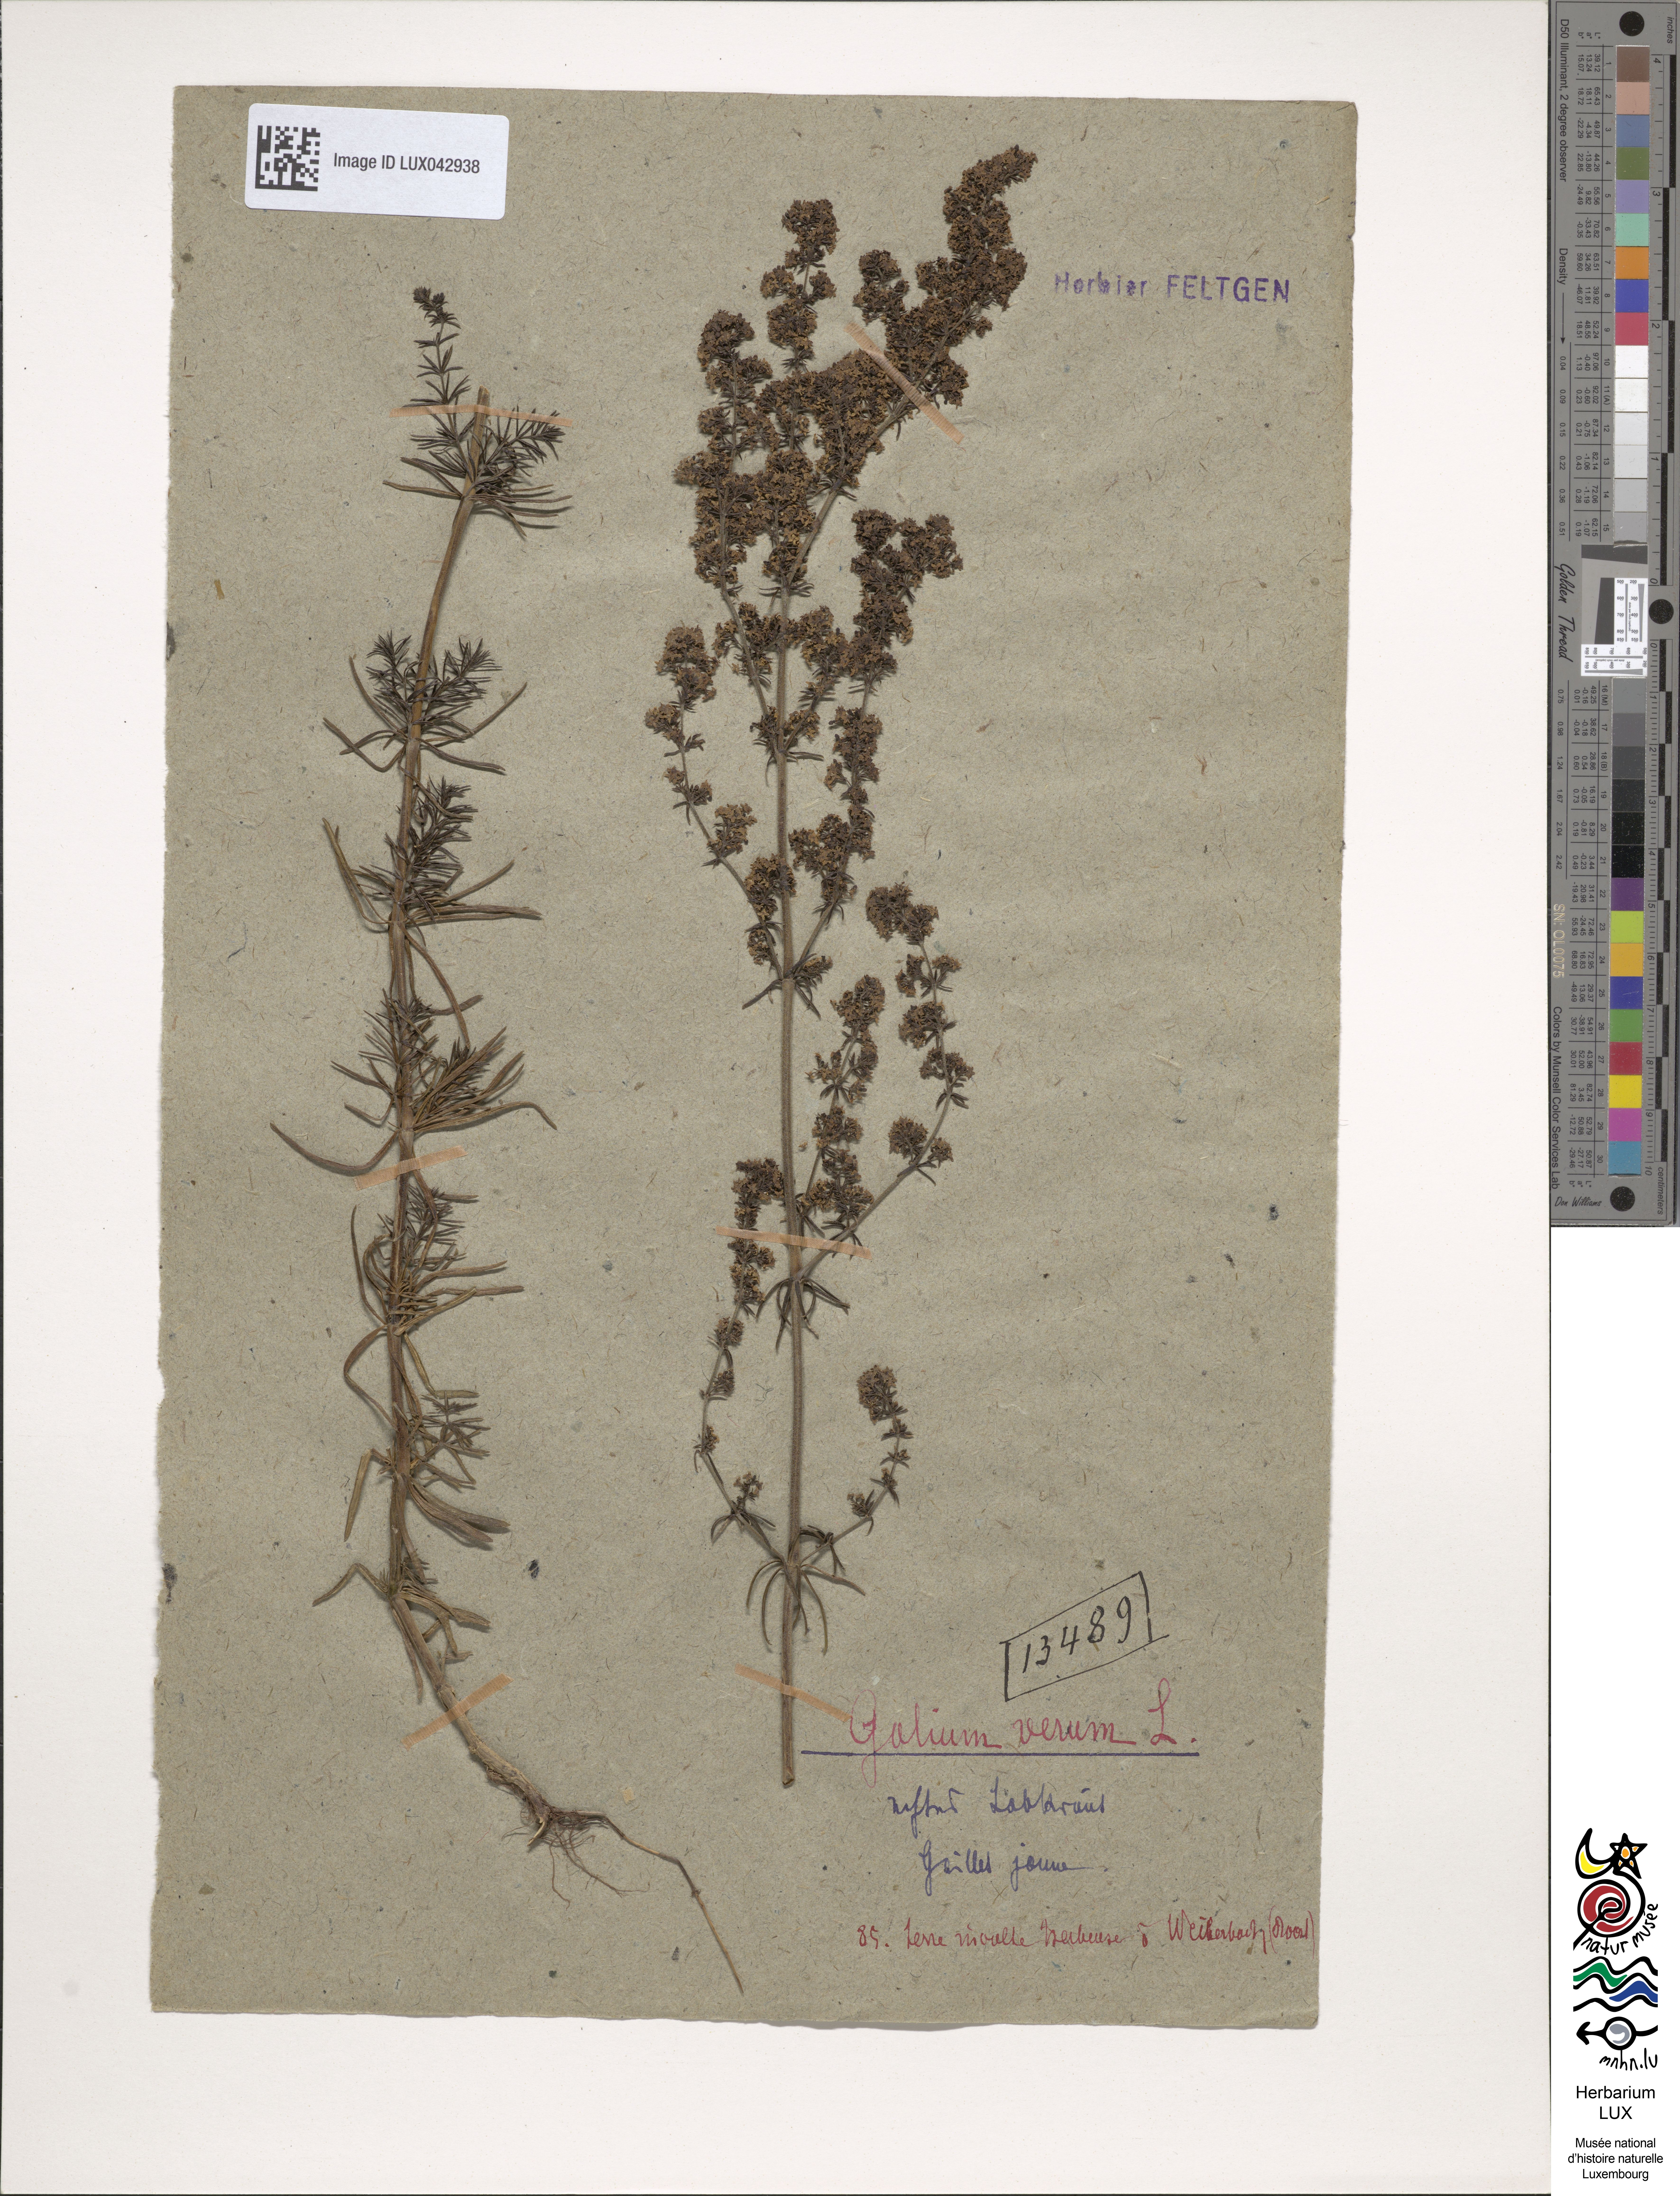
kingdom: Plantae
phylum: Tracheophyta
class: Magnoliopsida
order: Gentianales
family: Rubiaceae
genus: Galium
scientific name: Galium verum
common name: Lady's bedstraw
